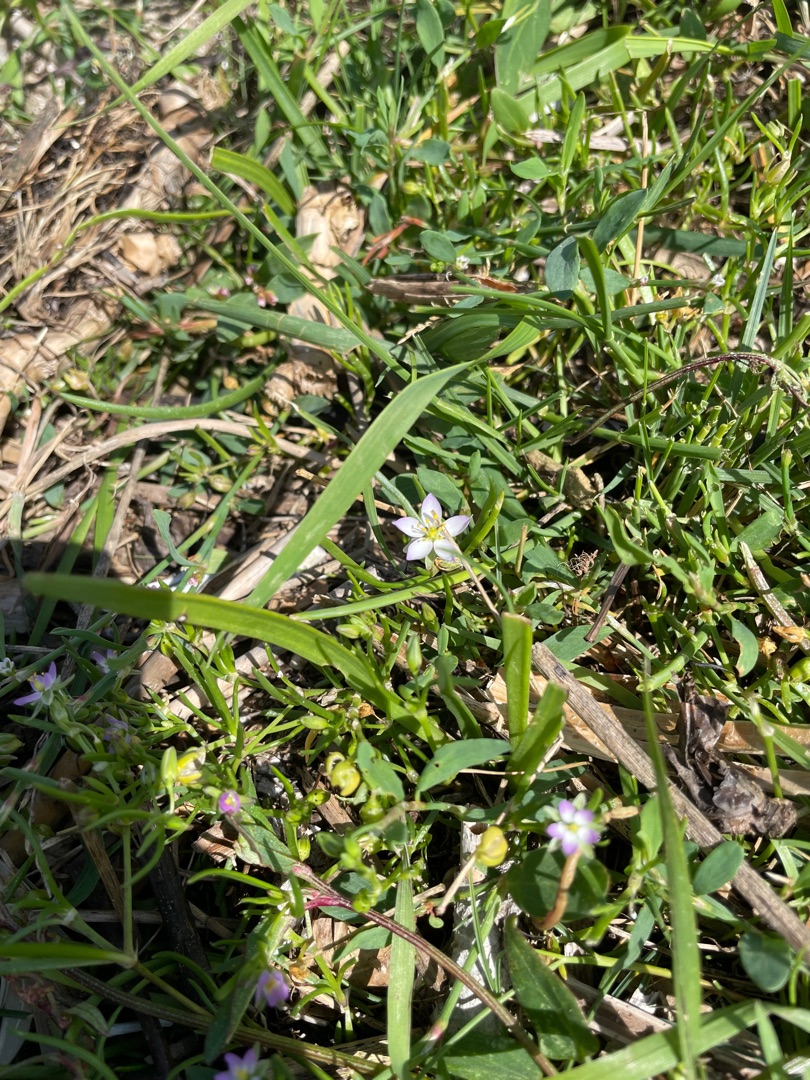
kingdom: Plantae
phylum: Tracheophyta
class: Magnoliopsida
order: Caryophyllales
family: Caryophyllaceae
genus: Spergularia
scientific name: Spergularia marina
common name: Kødet hindeknæ
